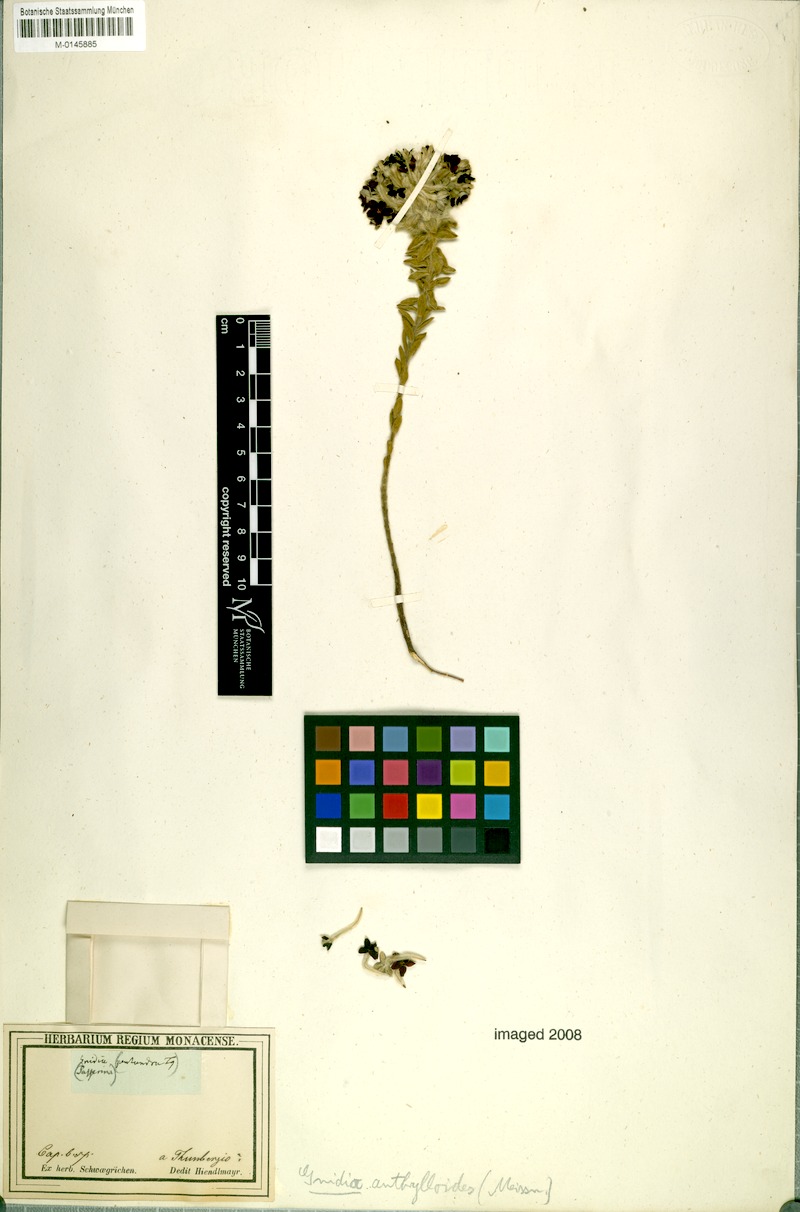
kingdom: Plantae
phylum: Tracheophyta
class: Magnoliopsida
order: Malvales
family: Thymelaeaceae
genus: Gnidia
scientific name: Gnidia anthylloides
